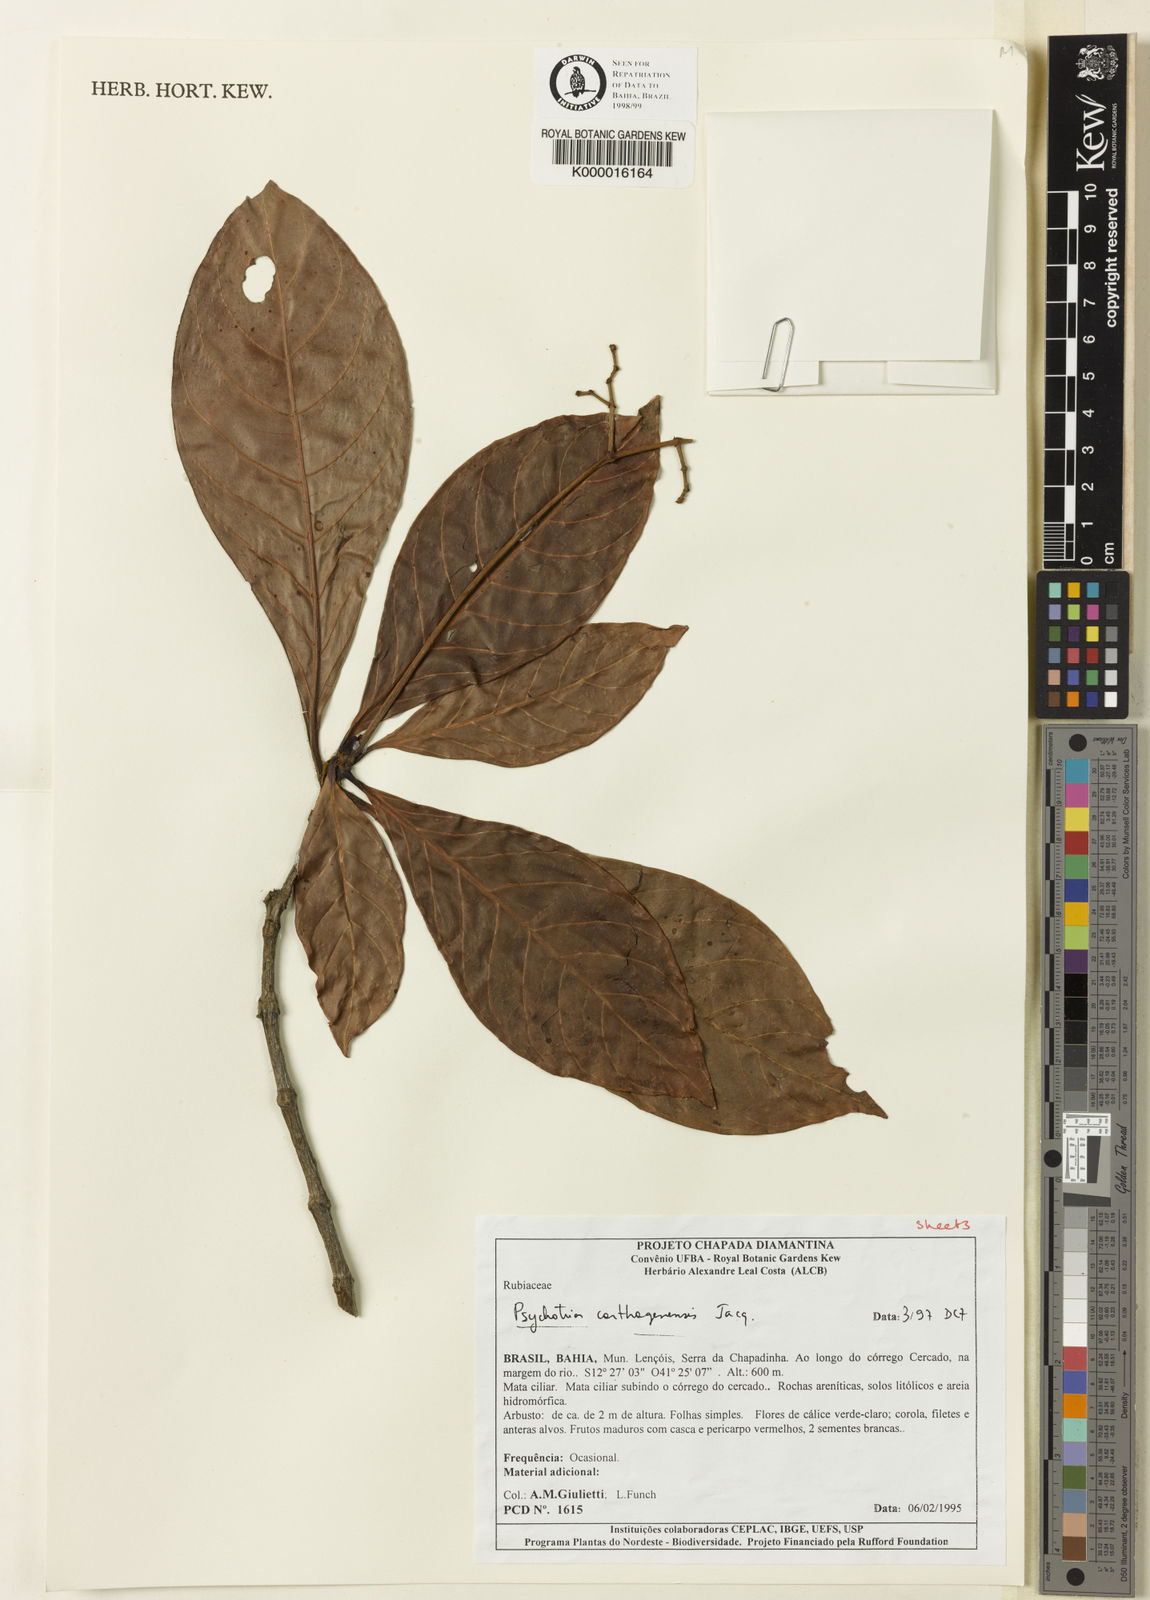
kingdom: Plantae
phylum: Tracheophyta
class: Magnoliopsida
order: Gentianales
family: Rubiaceae
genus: Psychotria
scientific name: Psychotria carthagenensis
